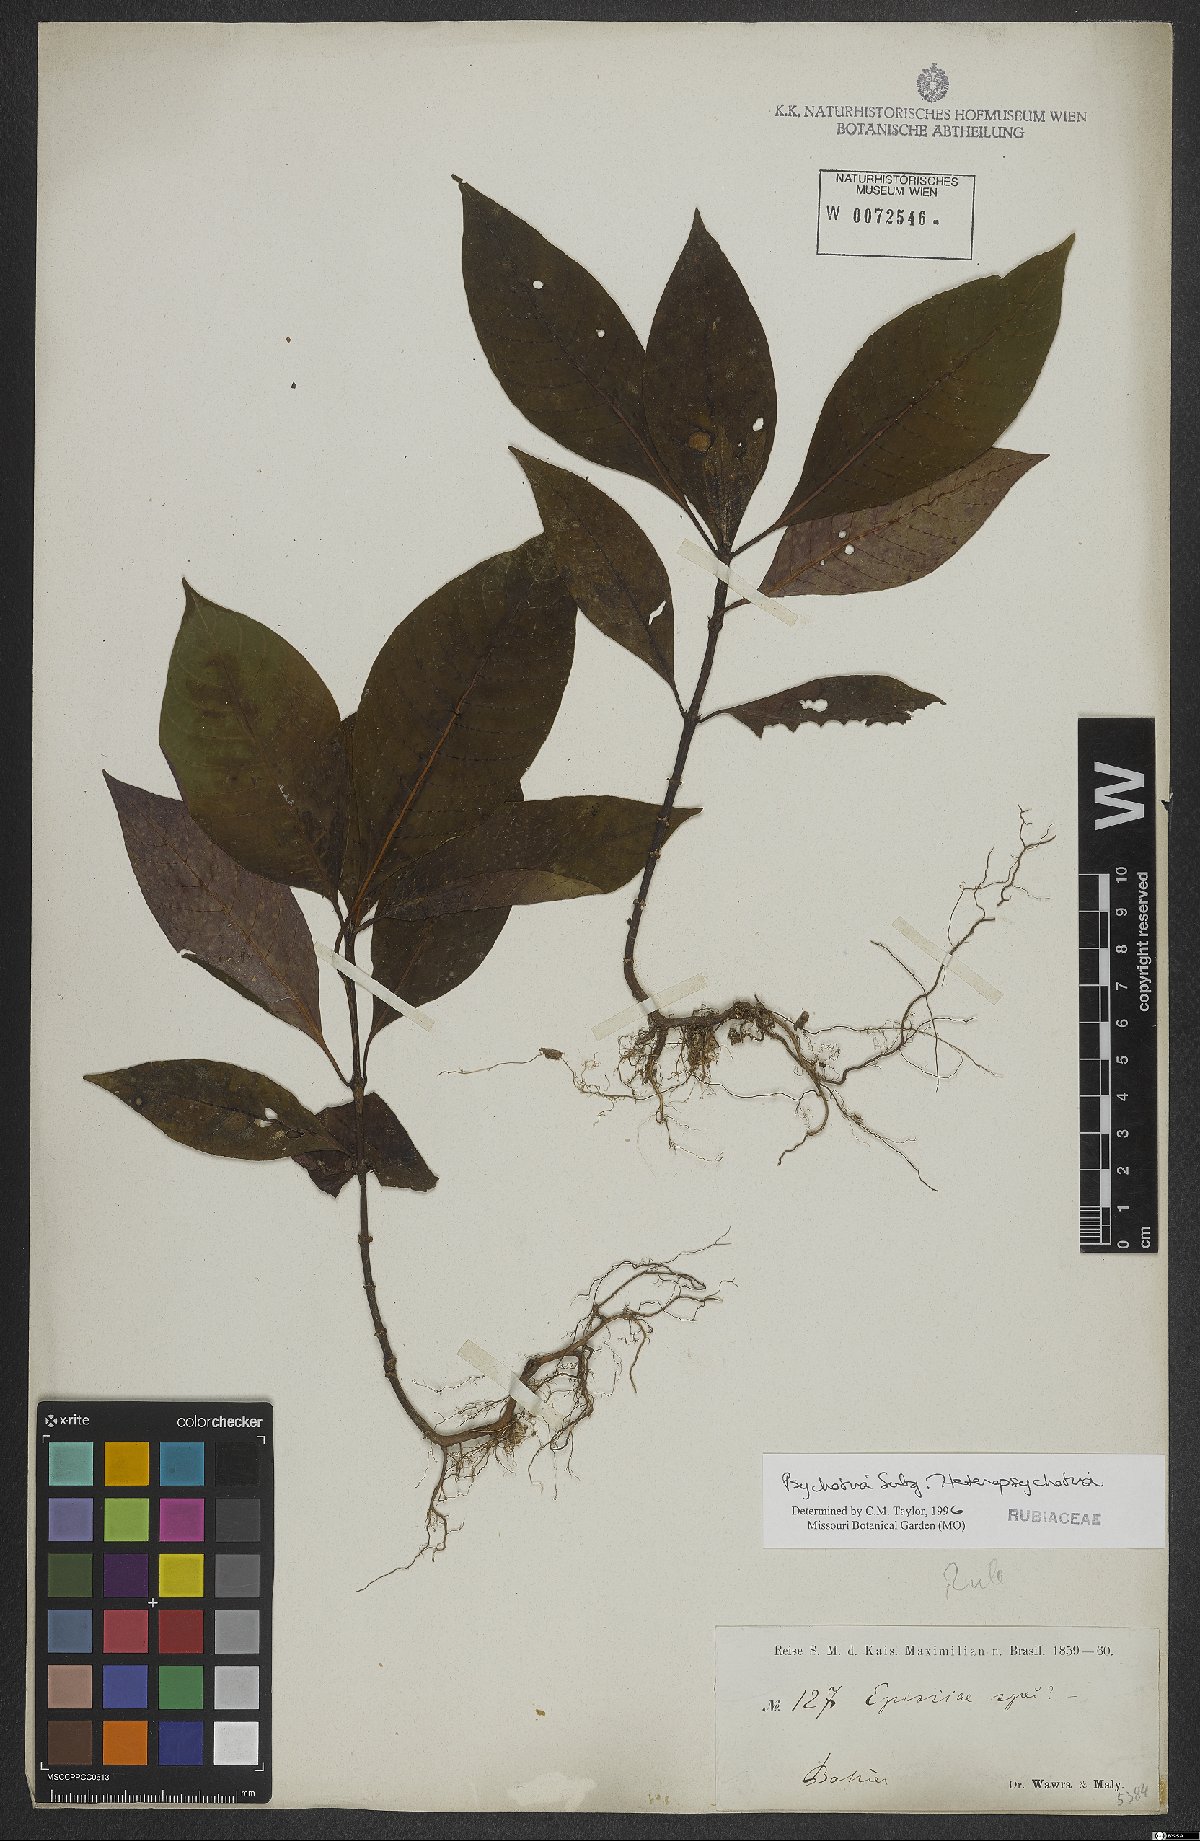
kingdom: Plantae
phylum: Tracheophyta
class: Magnoliopsida
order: Gentianales
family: Rubiaceae
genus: Psychotria
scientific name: Psychotria
